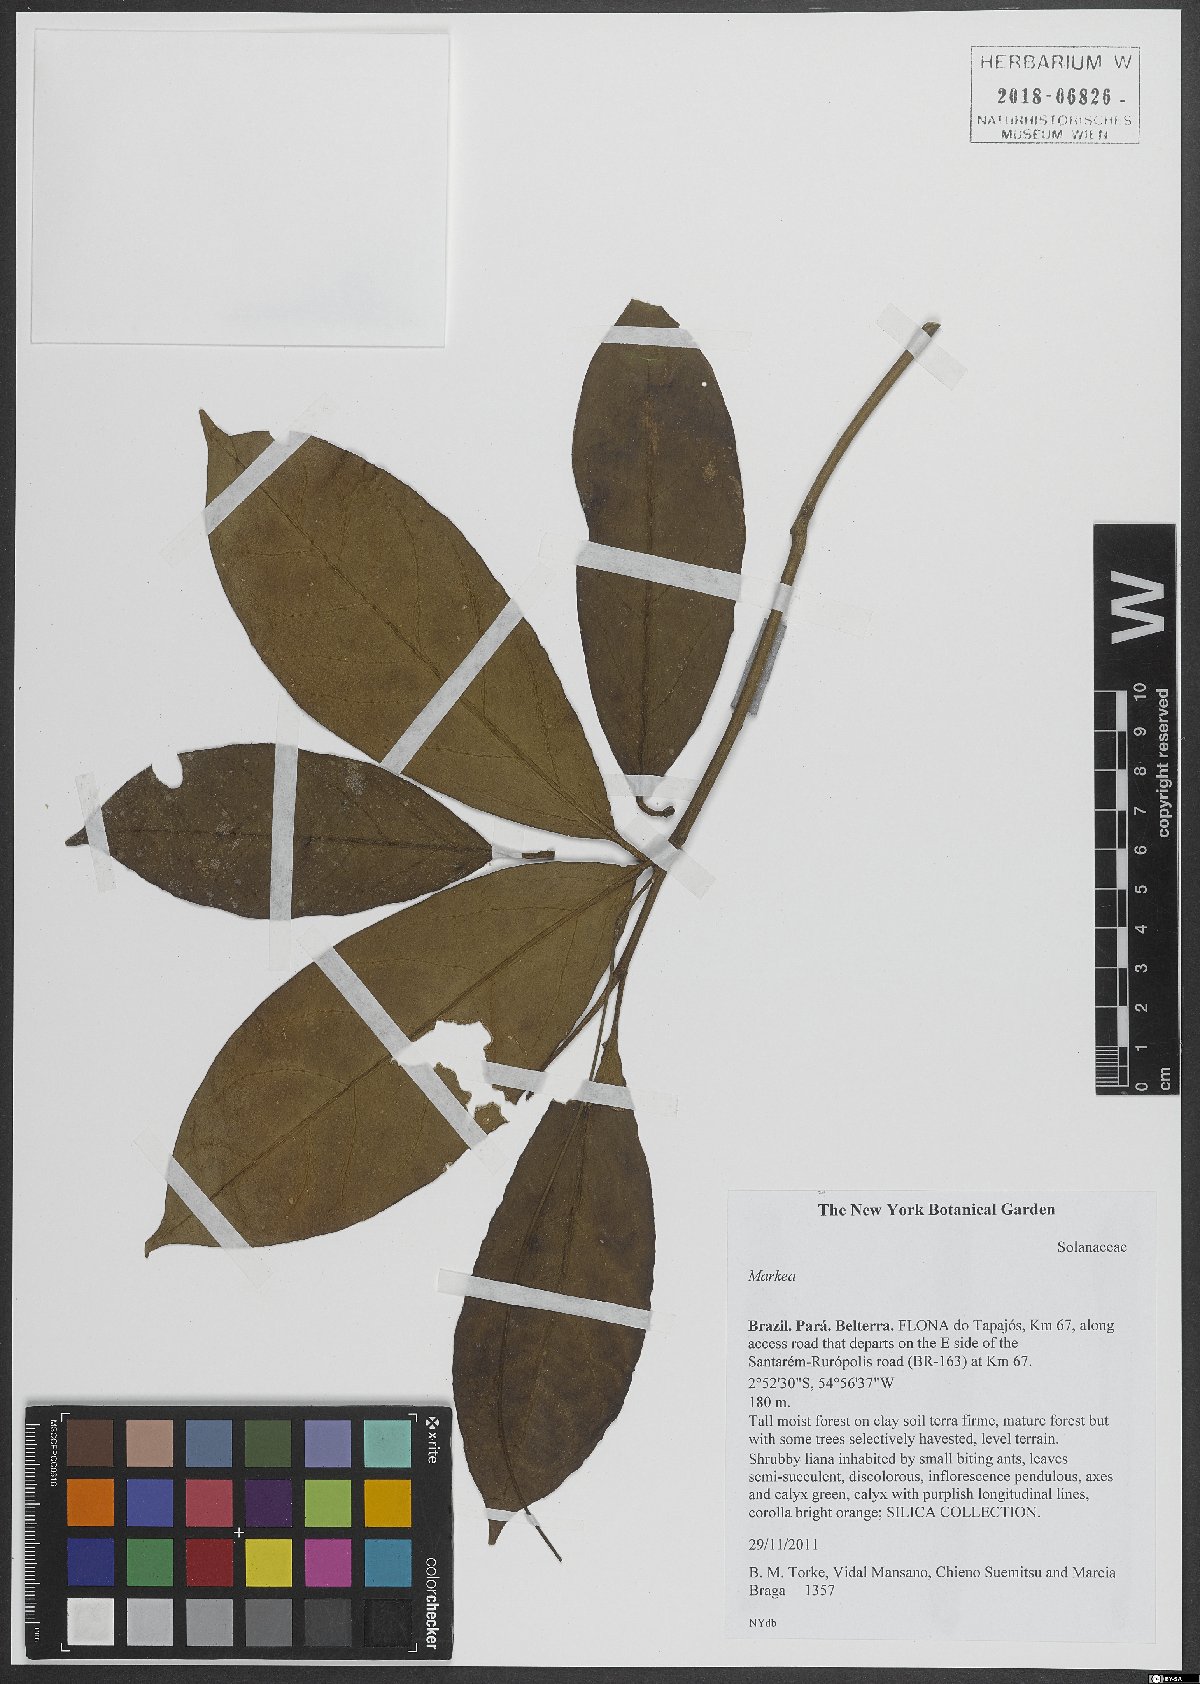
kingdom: Plantae
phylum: Tracheophyta
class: Magnoliopsida
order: Solanales
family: Solanaceae
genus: Markea
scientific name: Markea
